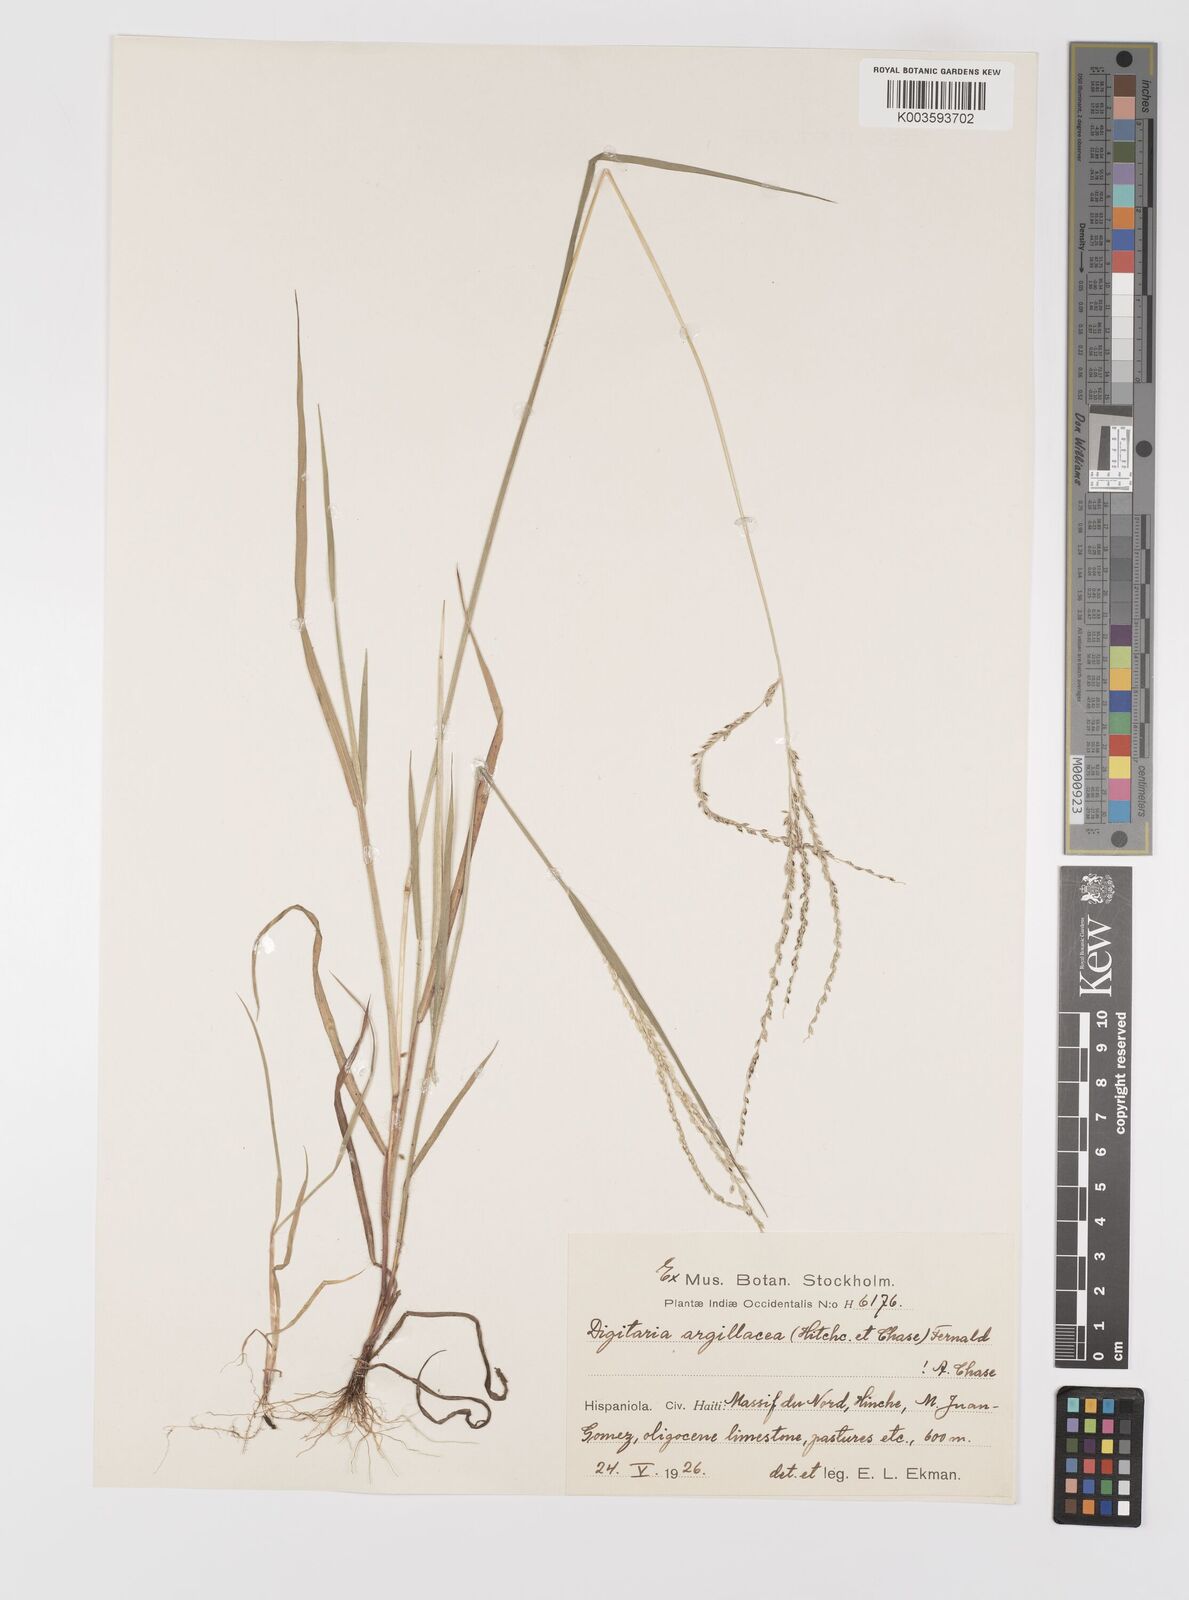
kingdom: Plantae
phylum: Tracheophyta
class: Liliopsida
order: Poales
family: Poaceae
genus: Digitaria
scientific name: Digitaria argillacea
